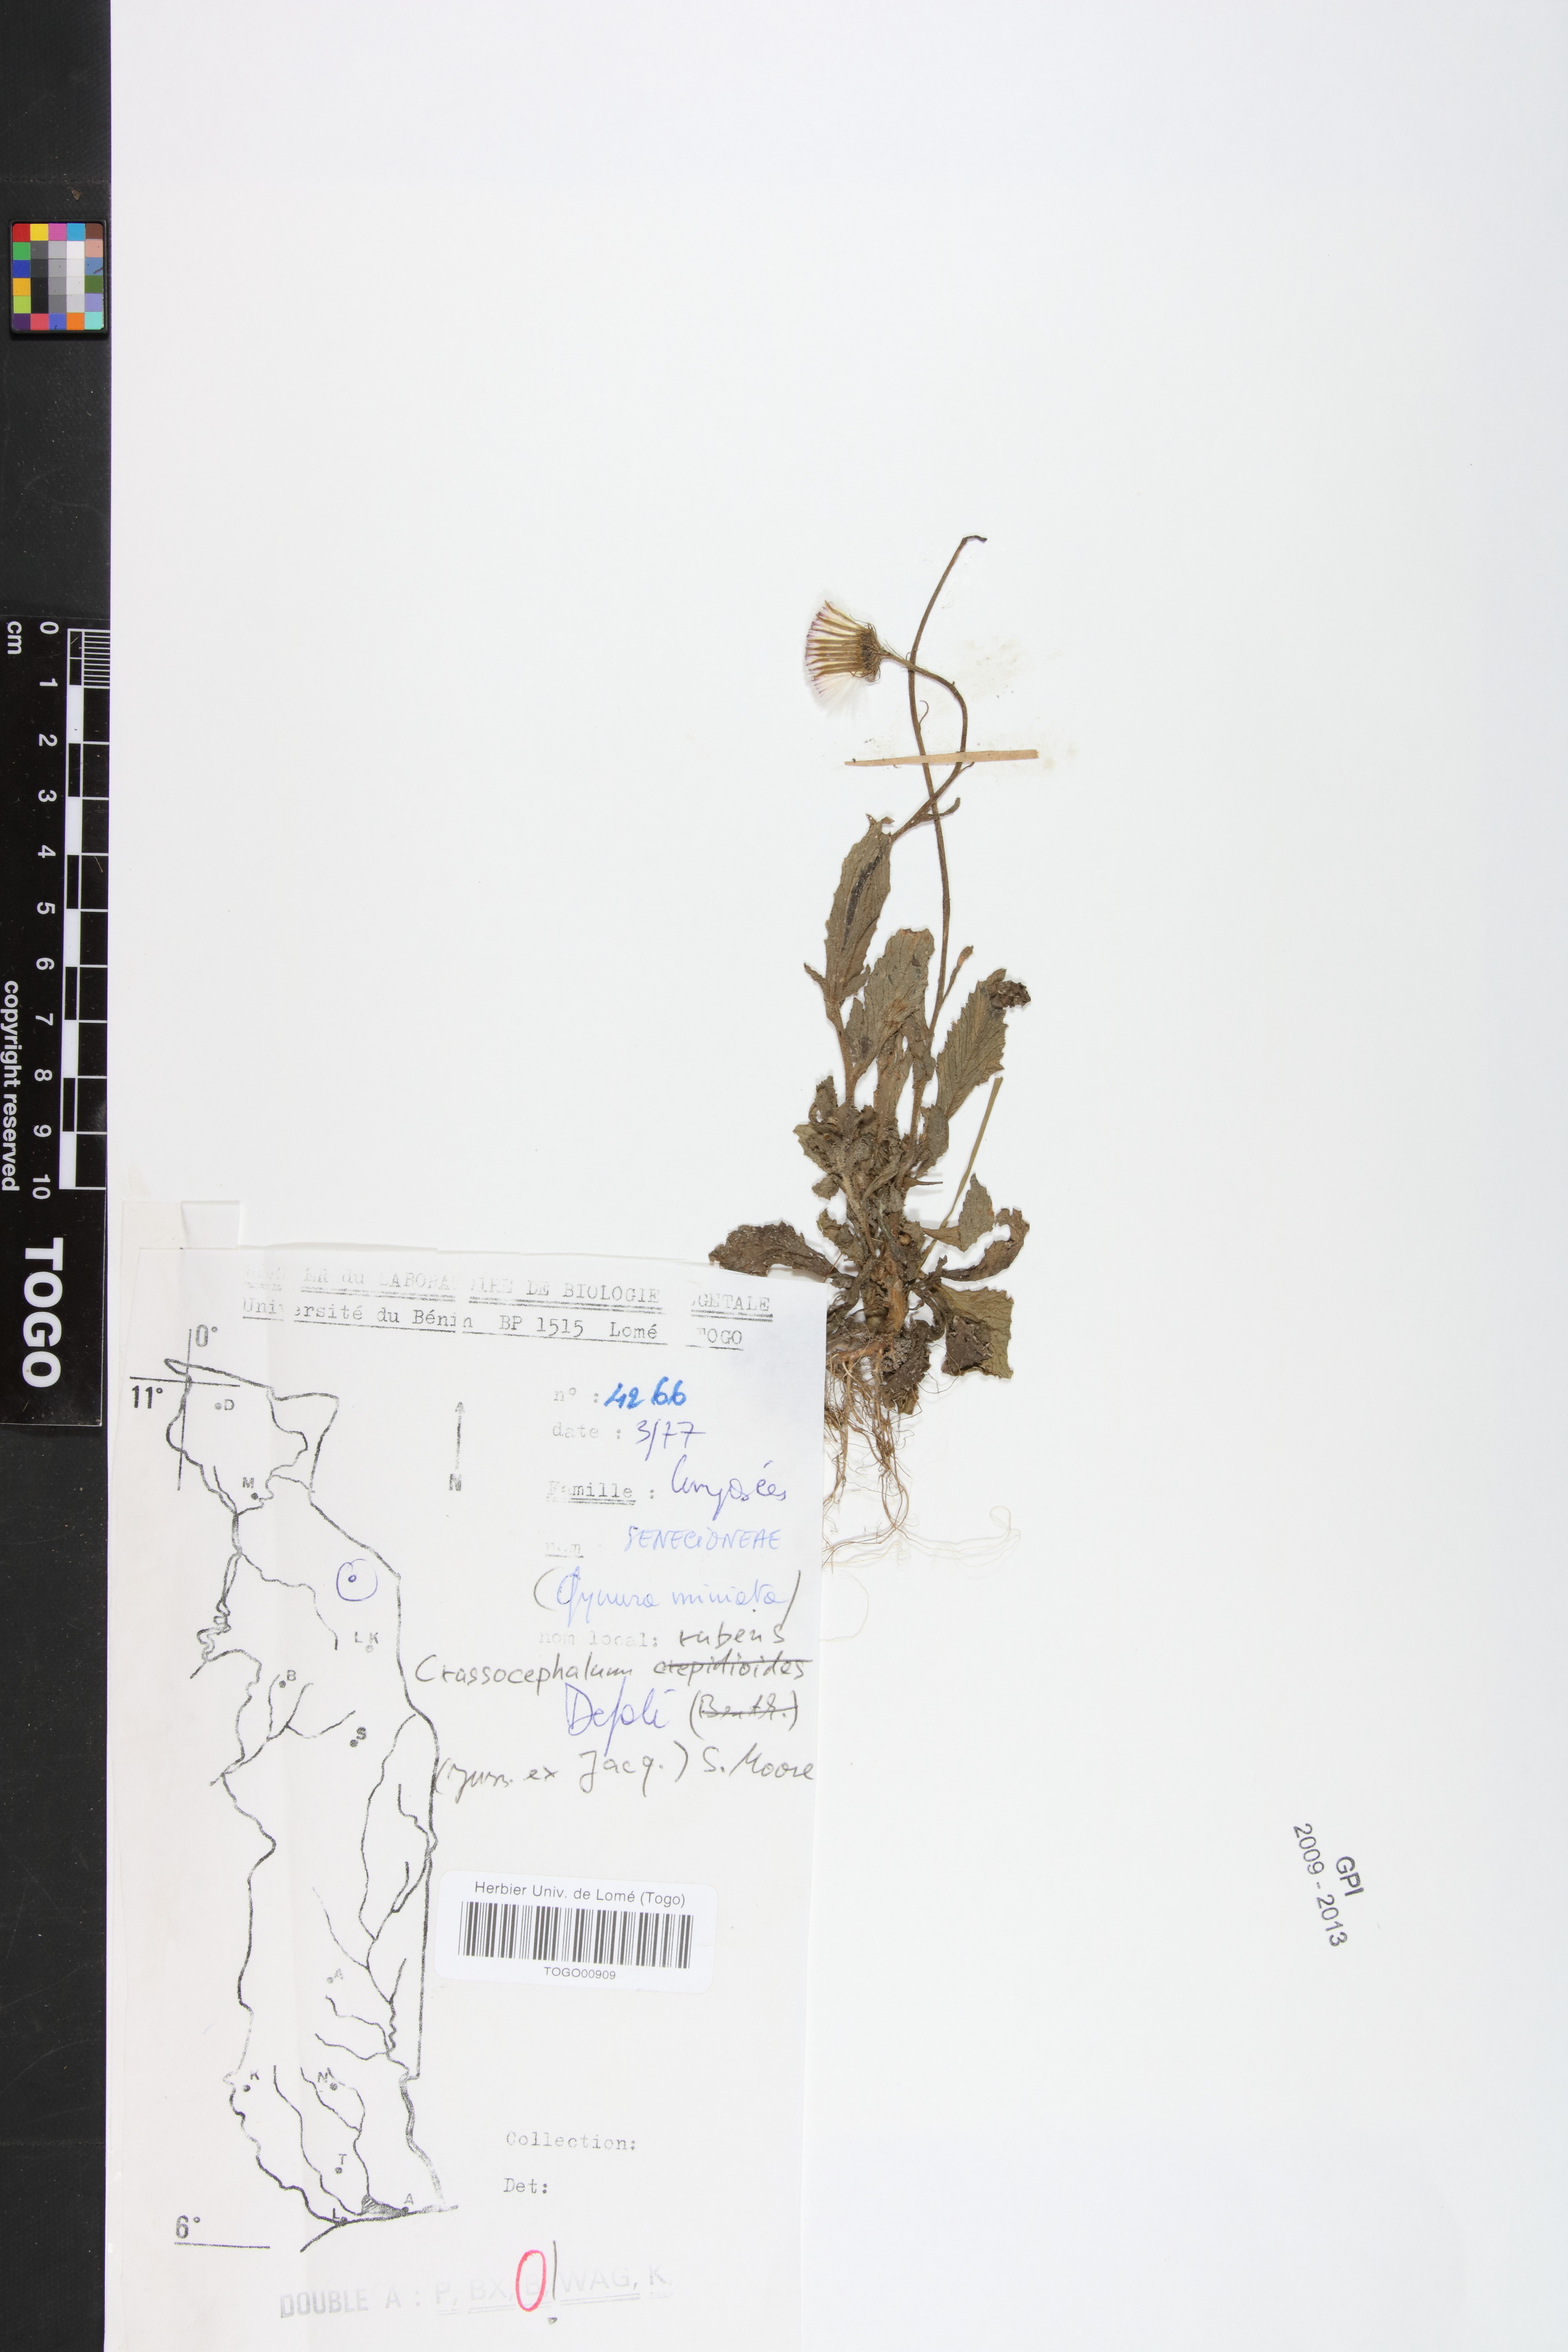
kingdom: Plantae
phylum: Tracheophyta
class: Magnoliopsida
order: Asterales
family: Asteraceae
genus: Crassocephalum
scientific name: Crassocephalum rubens
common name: Yoruban bologi
